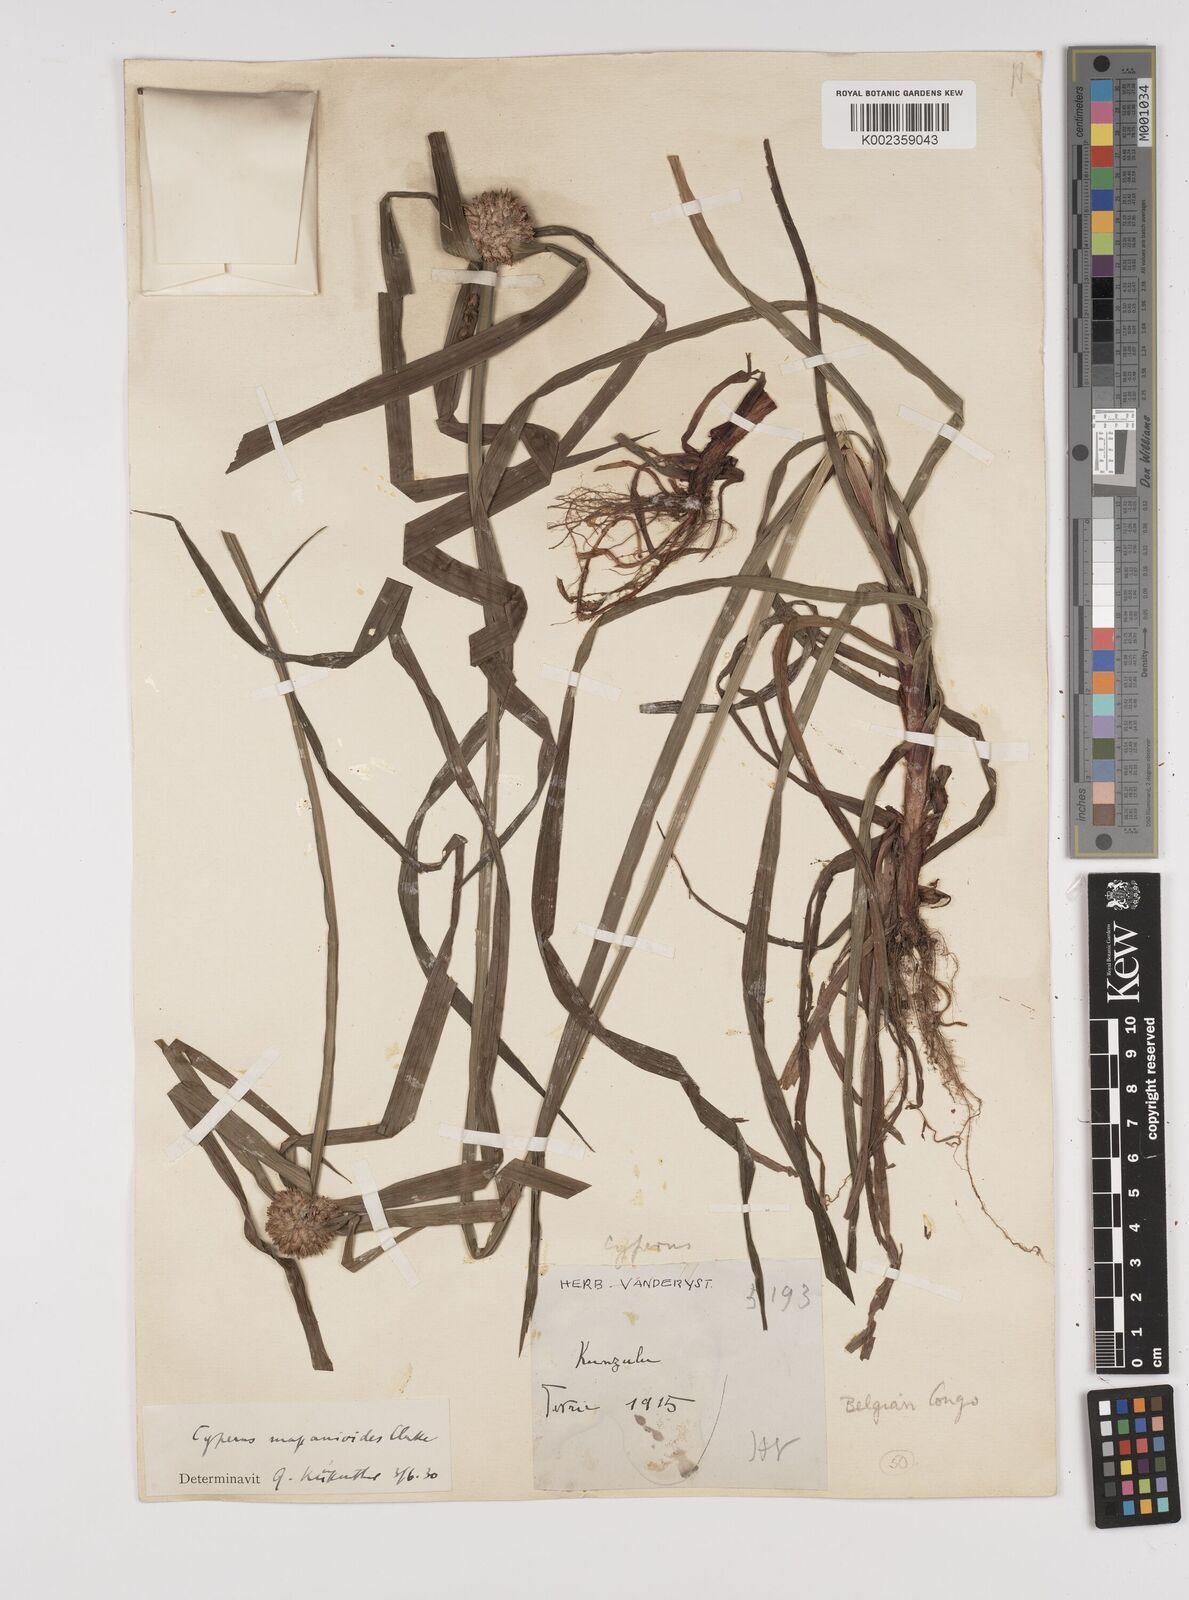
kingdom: Plantae
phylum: Tracheophyta
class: Liliopsida
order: Poales
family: Cyperaceae
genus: Cyperus
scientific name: Cyperus mapanioides
